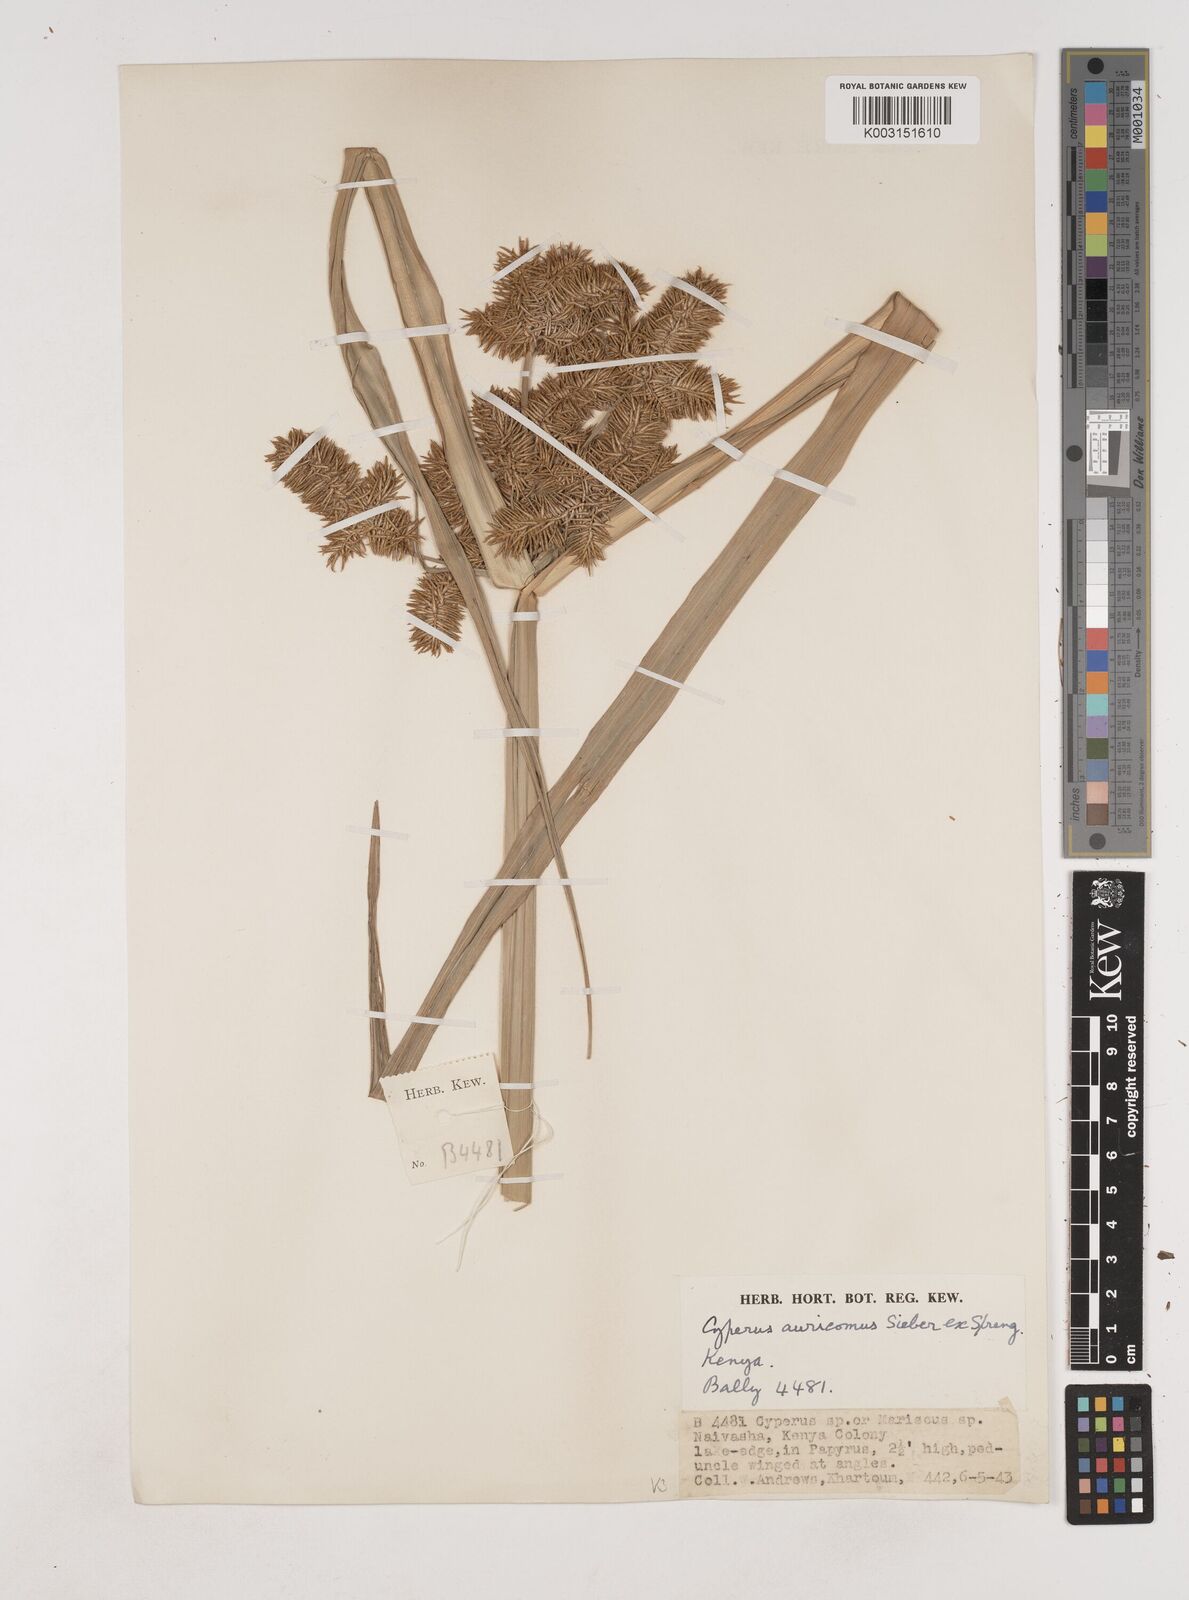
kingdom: Plantae
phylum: Tracheophyta
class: Liliopsida
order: Poales
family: Cyperaceae
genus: Cyperus
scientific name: Cyperus digitatus
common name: Finger flatsedge
